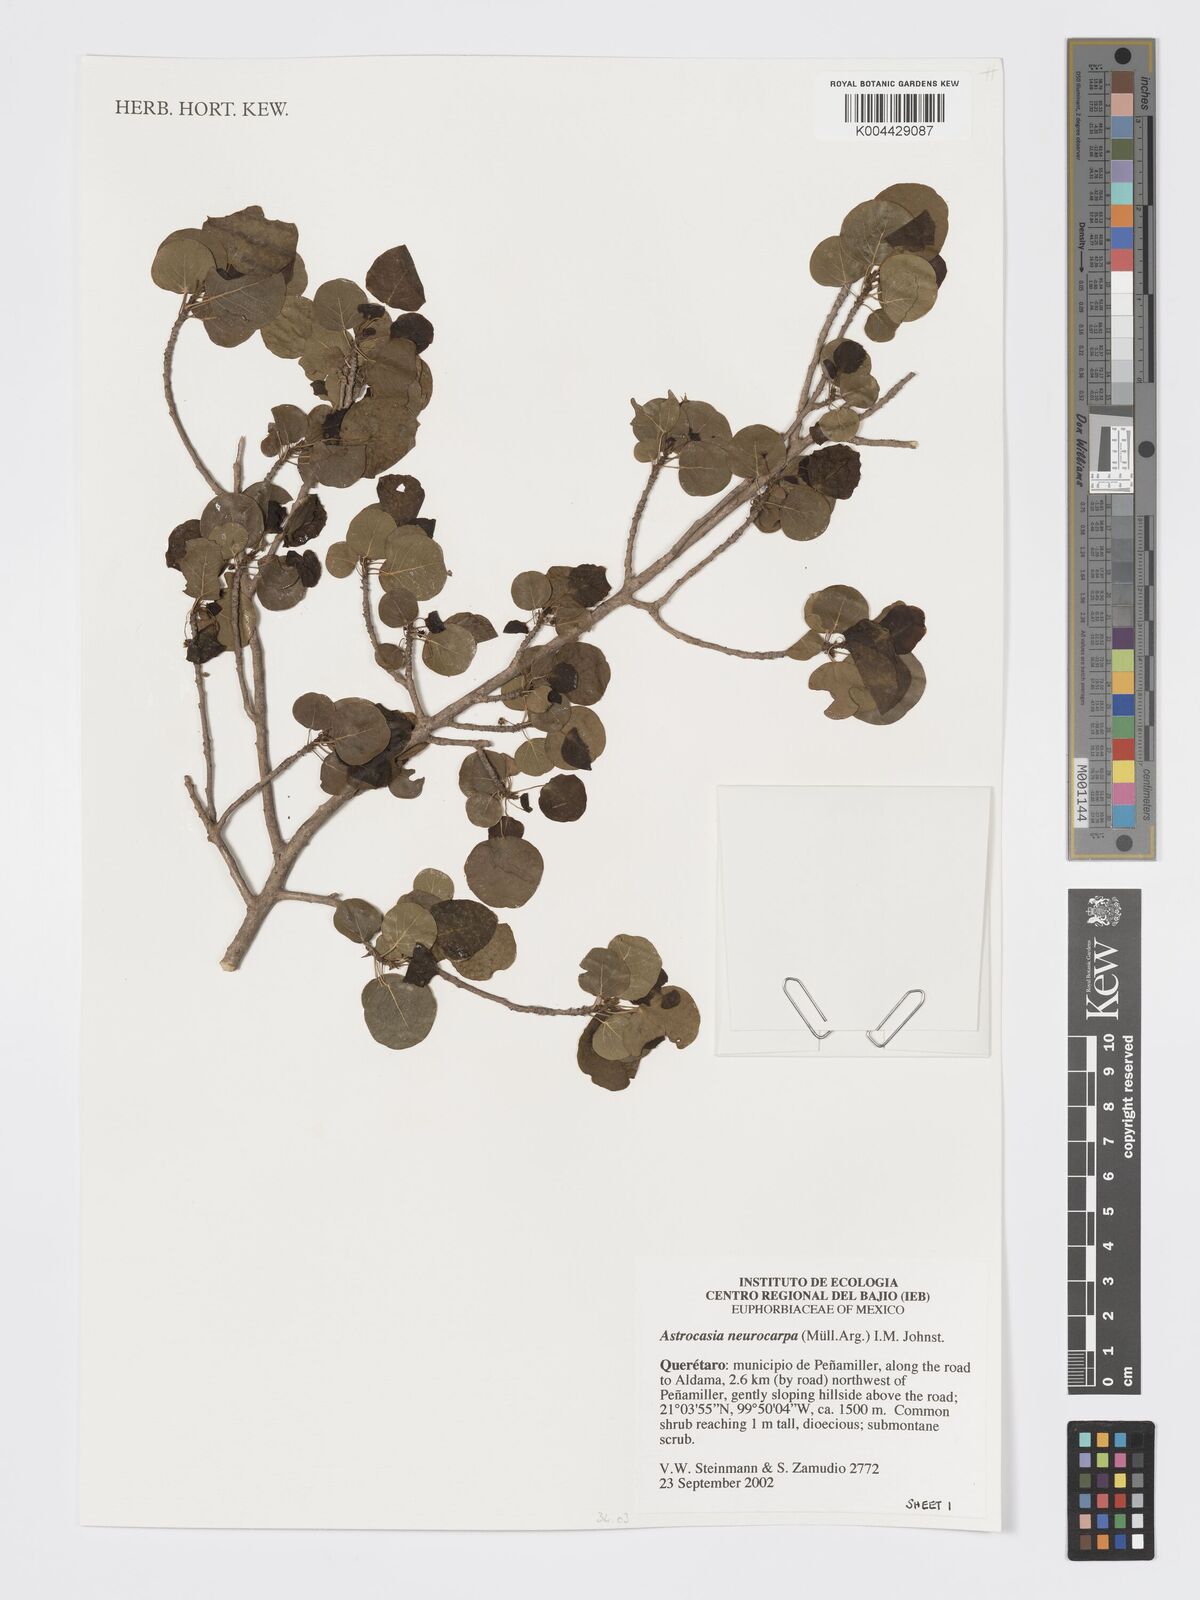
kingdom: Plantae
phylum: Tracheophyta
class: Magnoliopsida
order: Malpighiales
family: Phyllanthaceae
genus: Astrocasia
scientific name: Astrocasia neurocarpa
